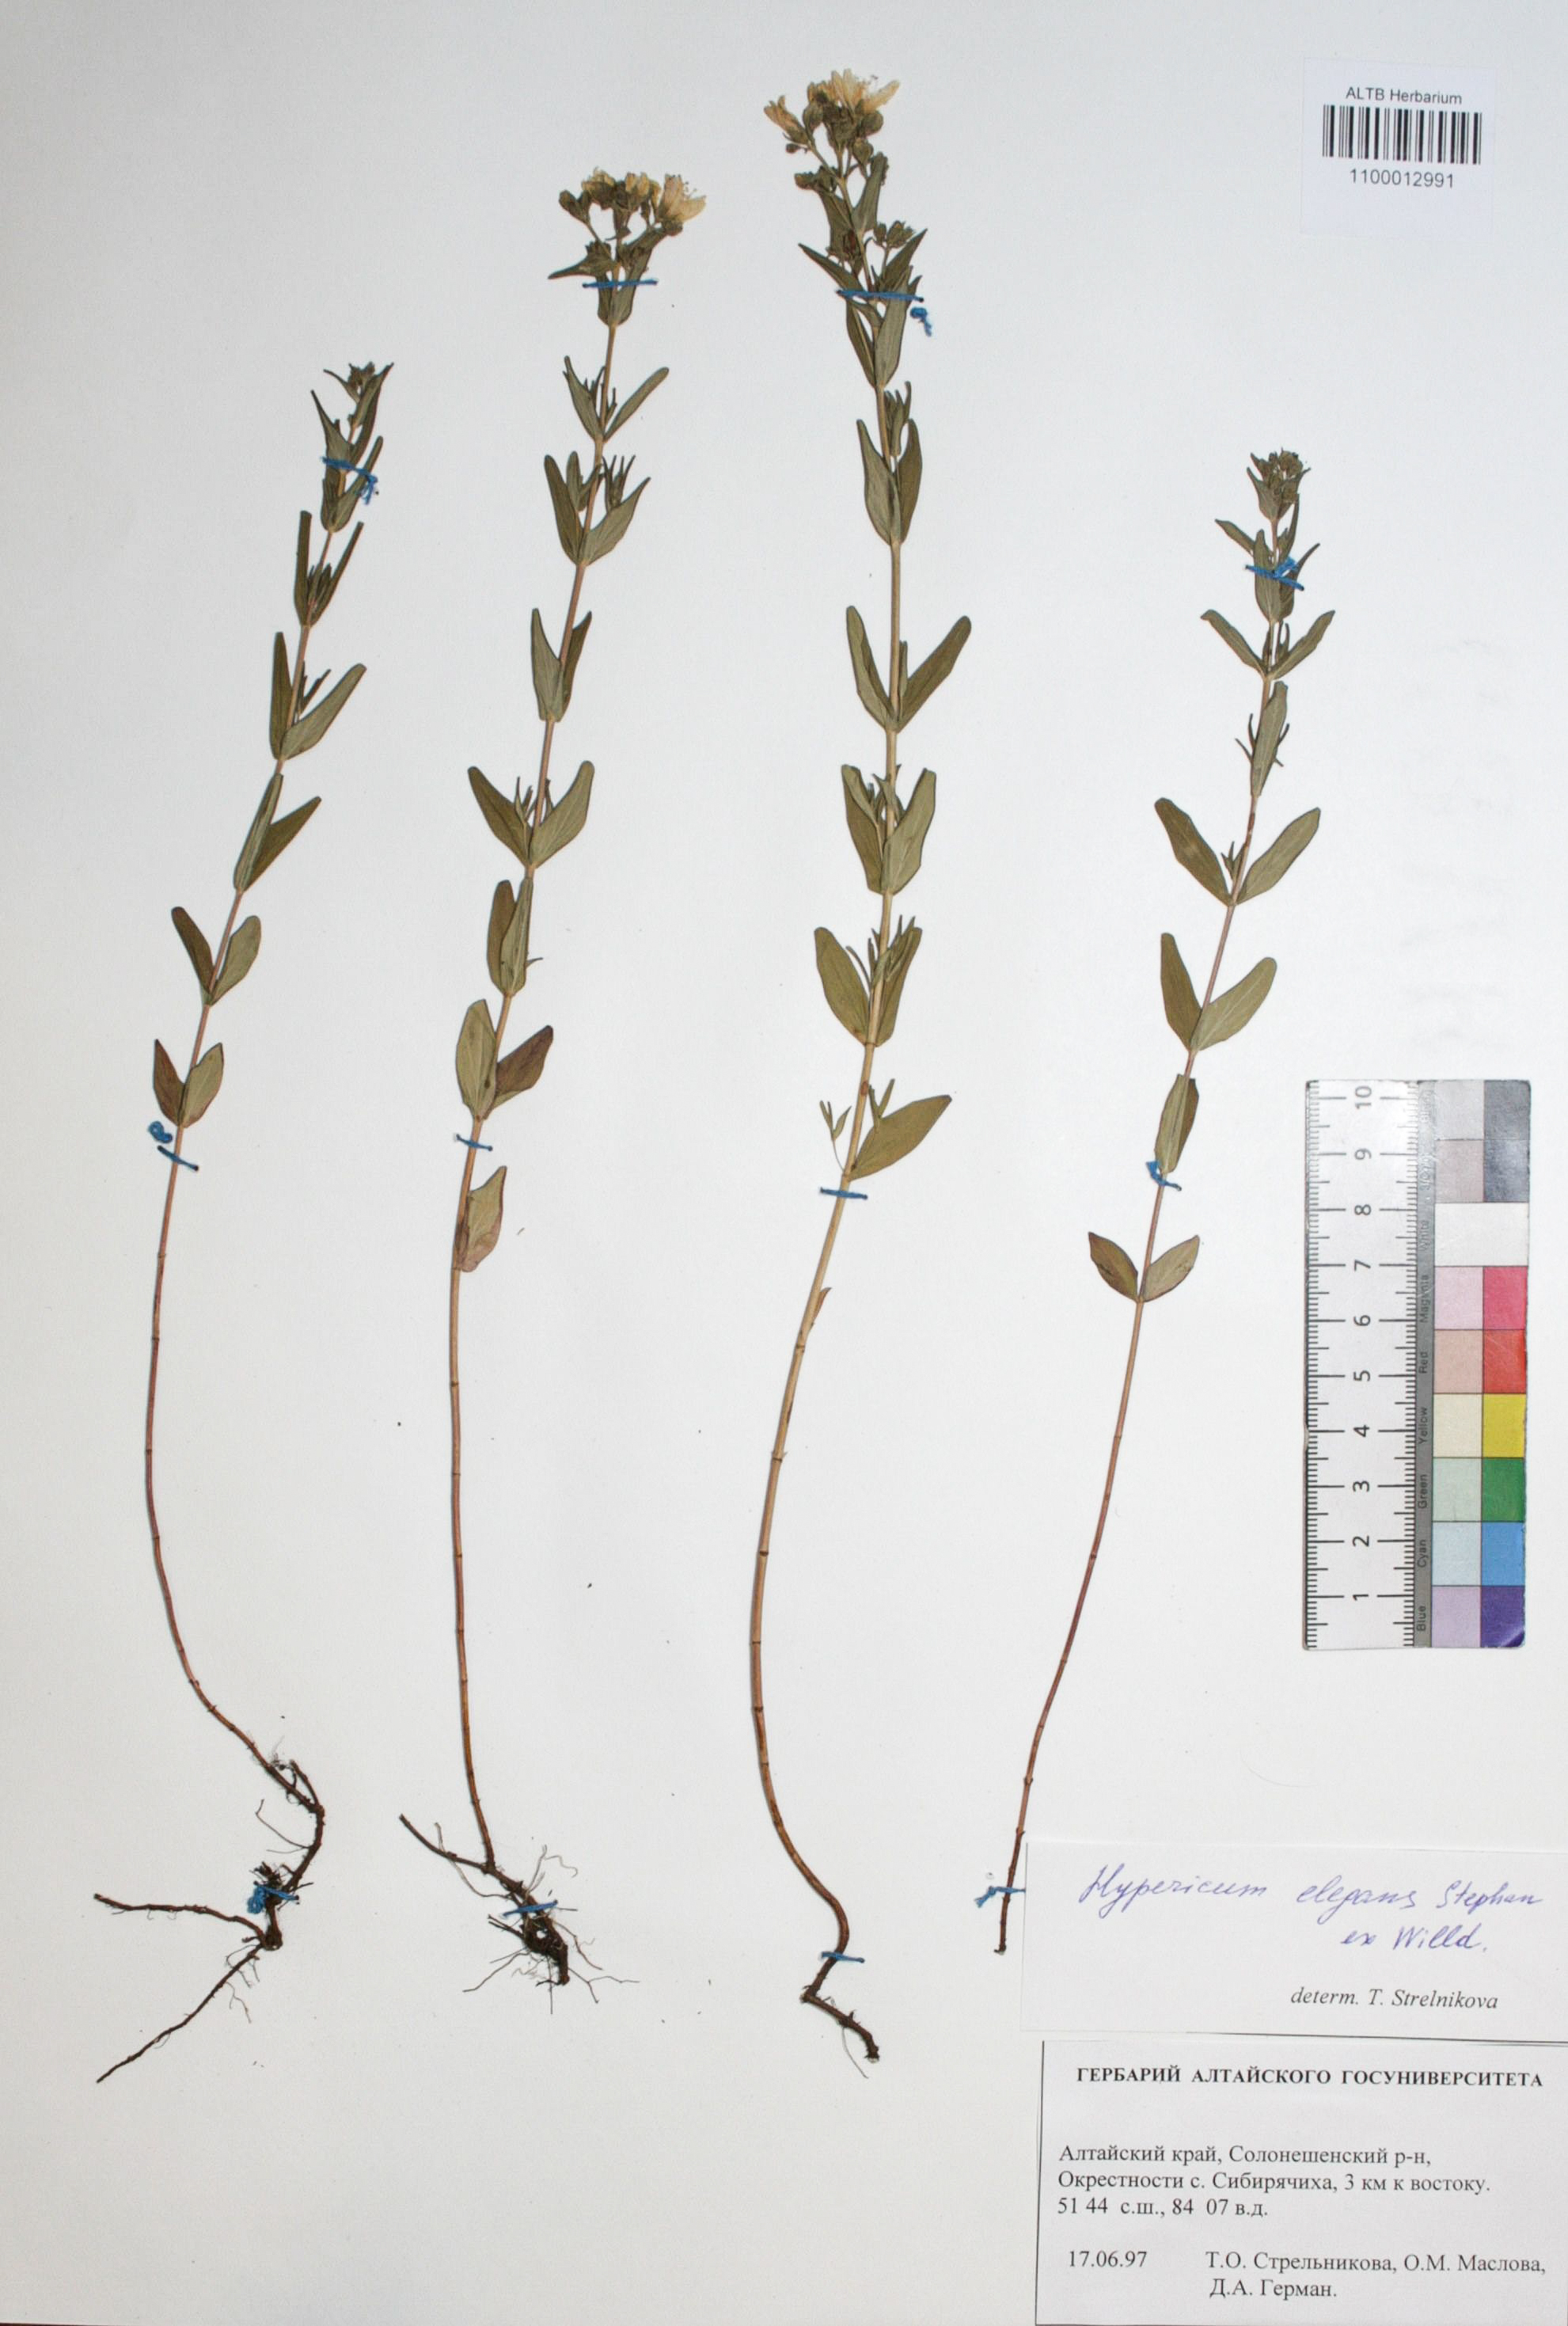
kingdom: Plantae
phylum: Tracheophyta
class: Magnoliopsida
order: Malpighiales
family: Hypericaceae
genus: Hypericum
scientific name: Hypericum elegans
